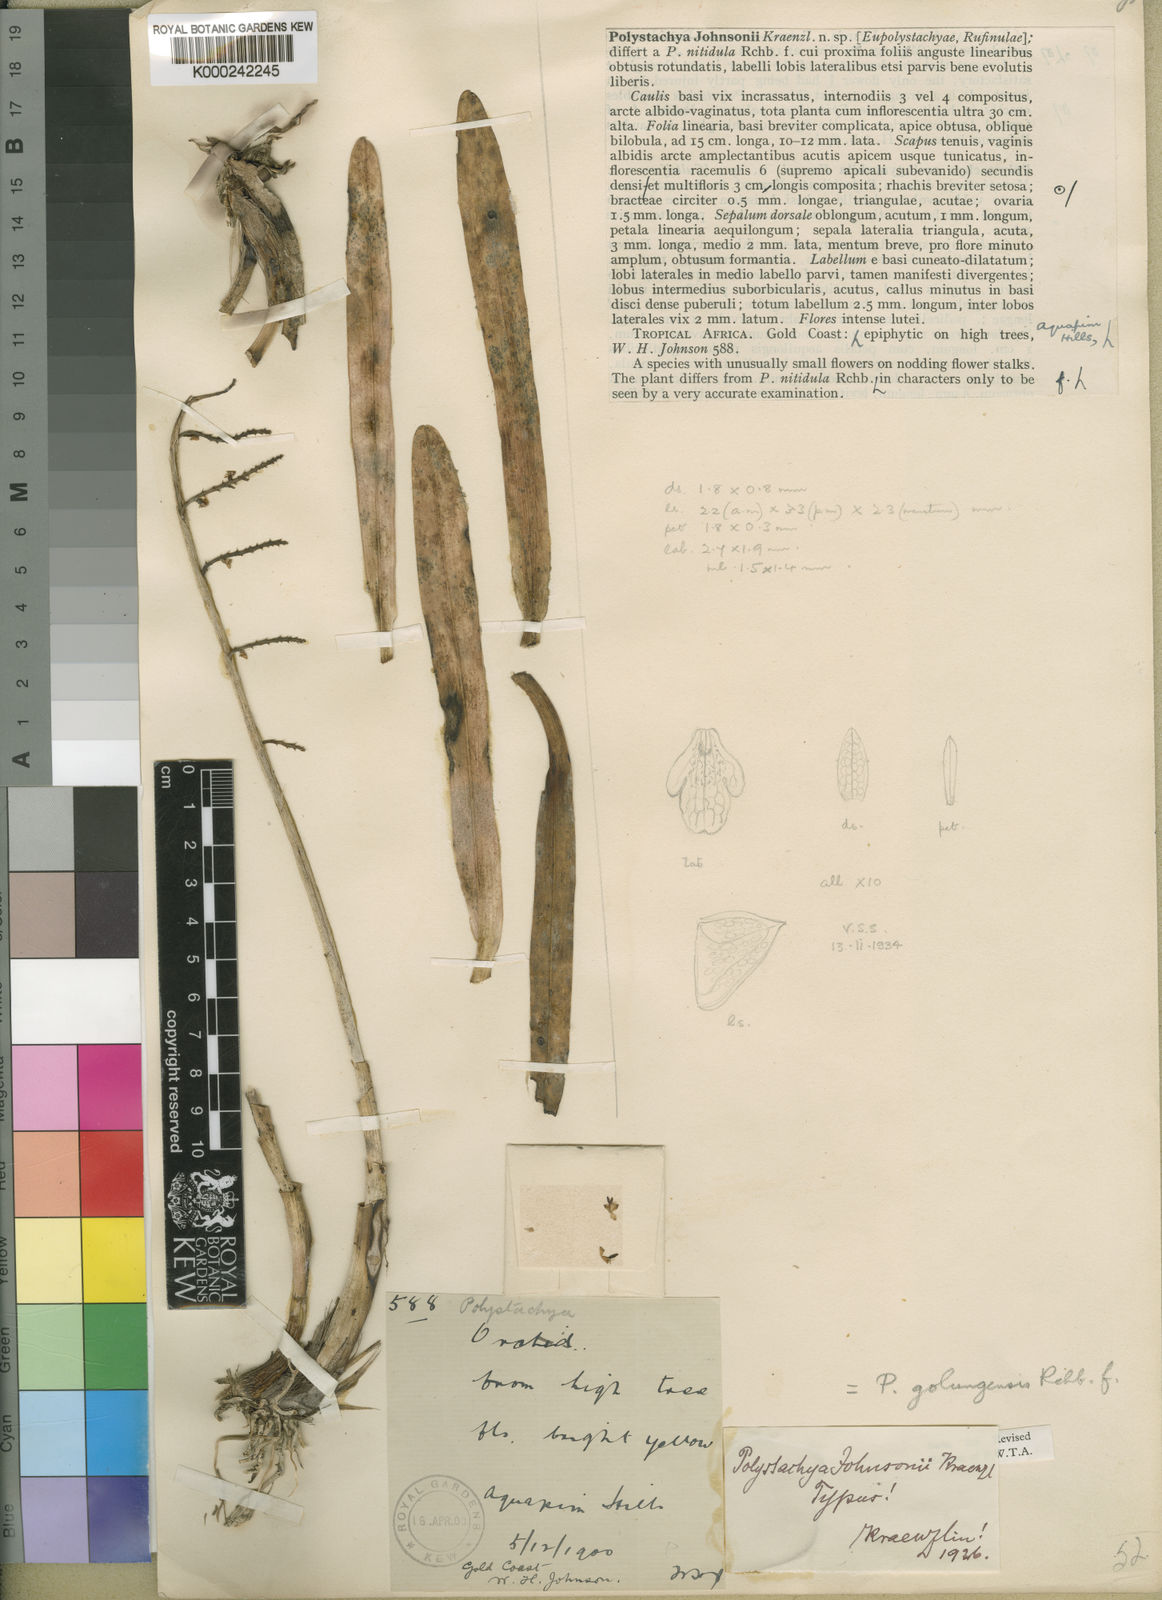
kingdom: Plantae
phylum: Tracheophyta
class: Liliopsida
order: Asparagales
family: Orchidaceae
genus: Polystachya
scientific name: Polystachya golungensis
